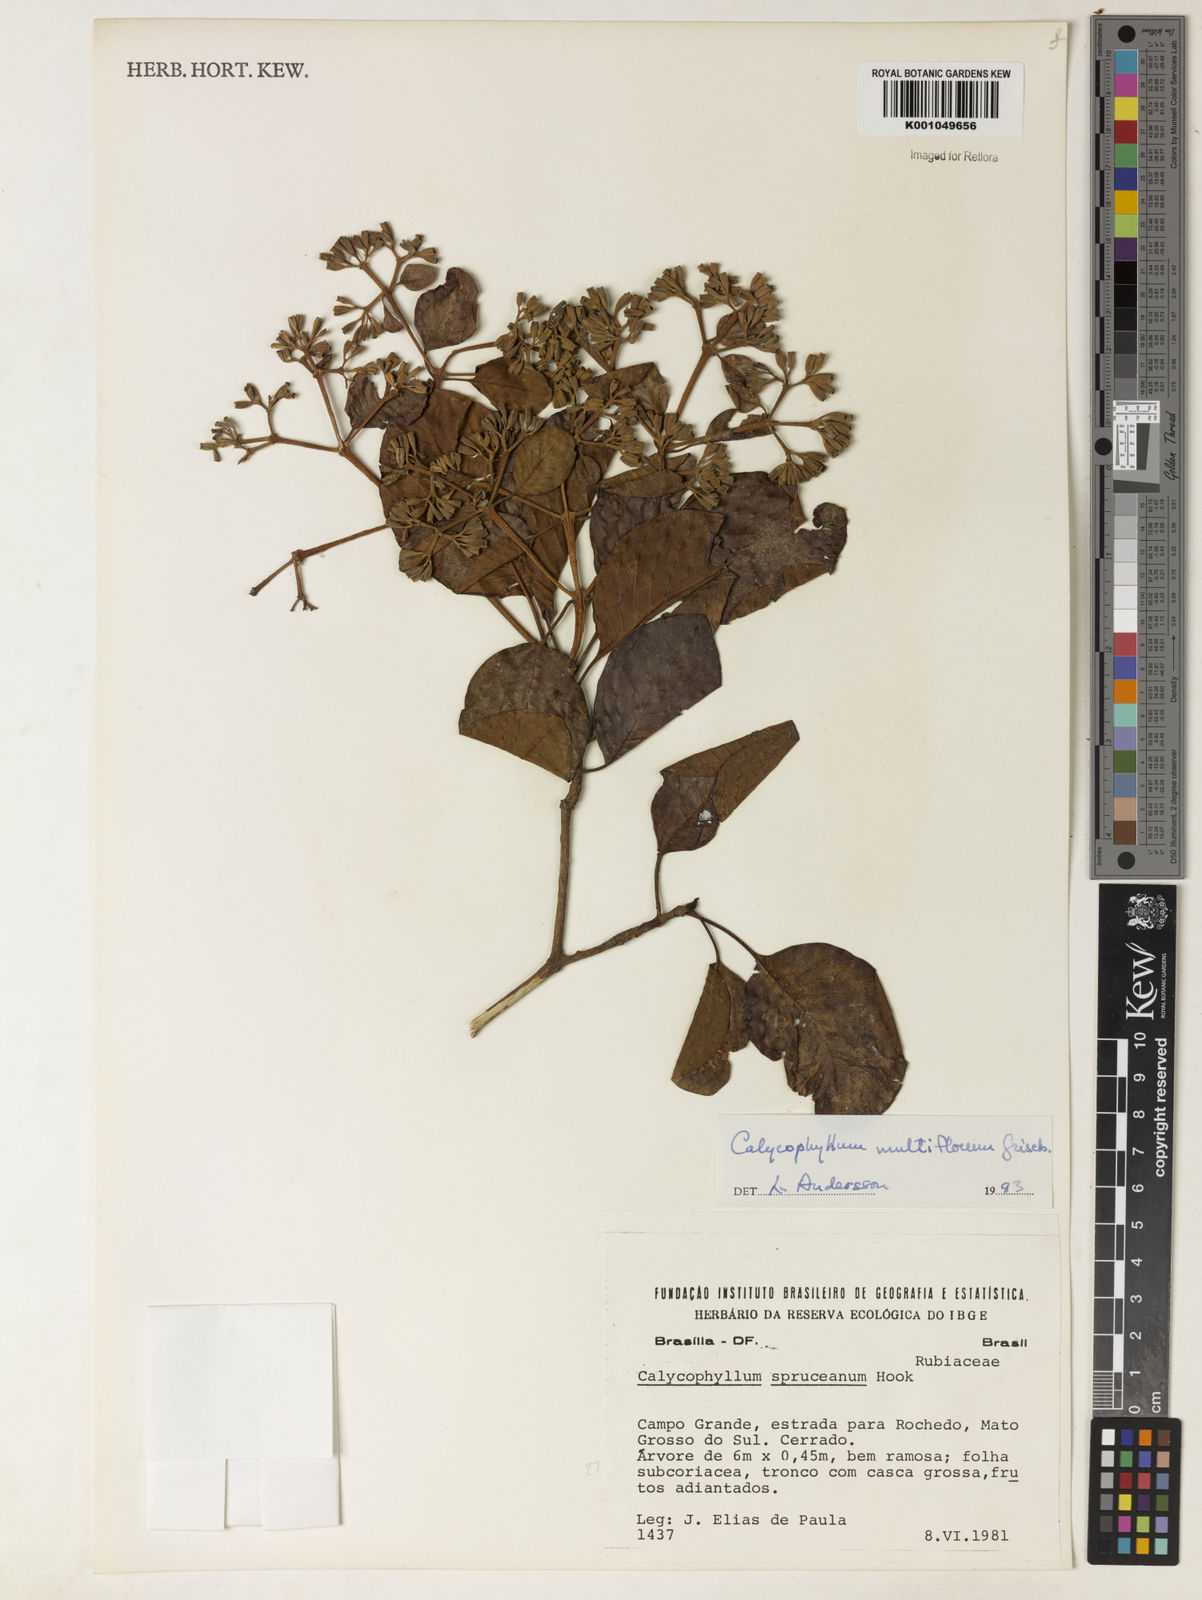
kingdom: Plantae
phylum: Tracheophyta
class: Magnoliopsida
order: Gentianales
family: Rubiaceae
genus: Calycophyllum
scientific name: Calycophyllum multiflorum
